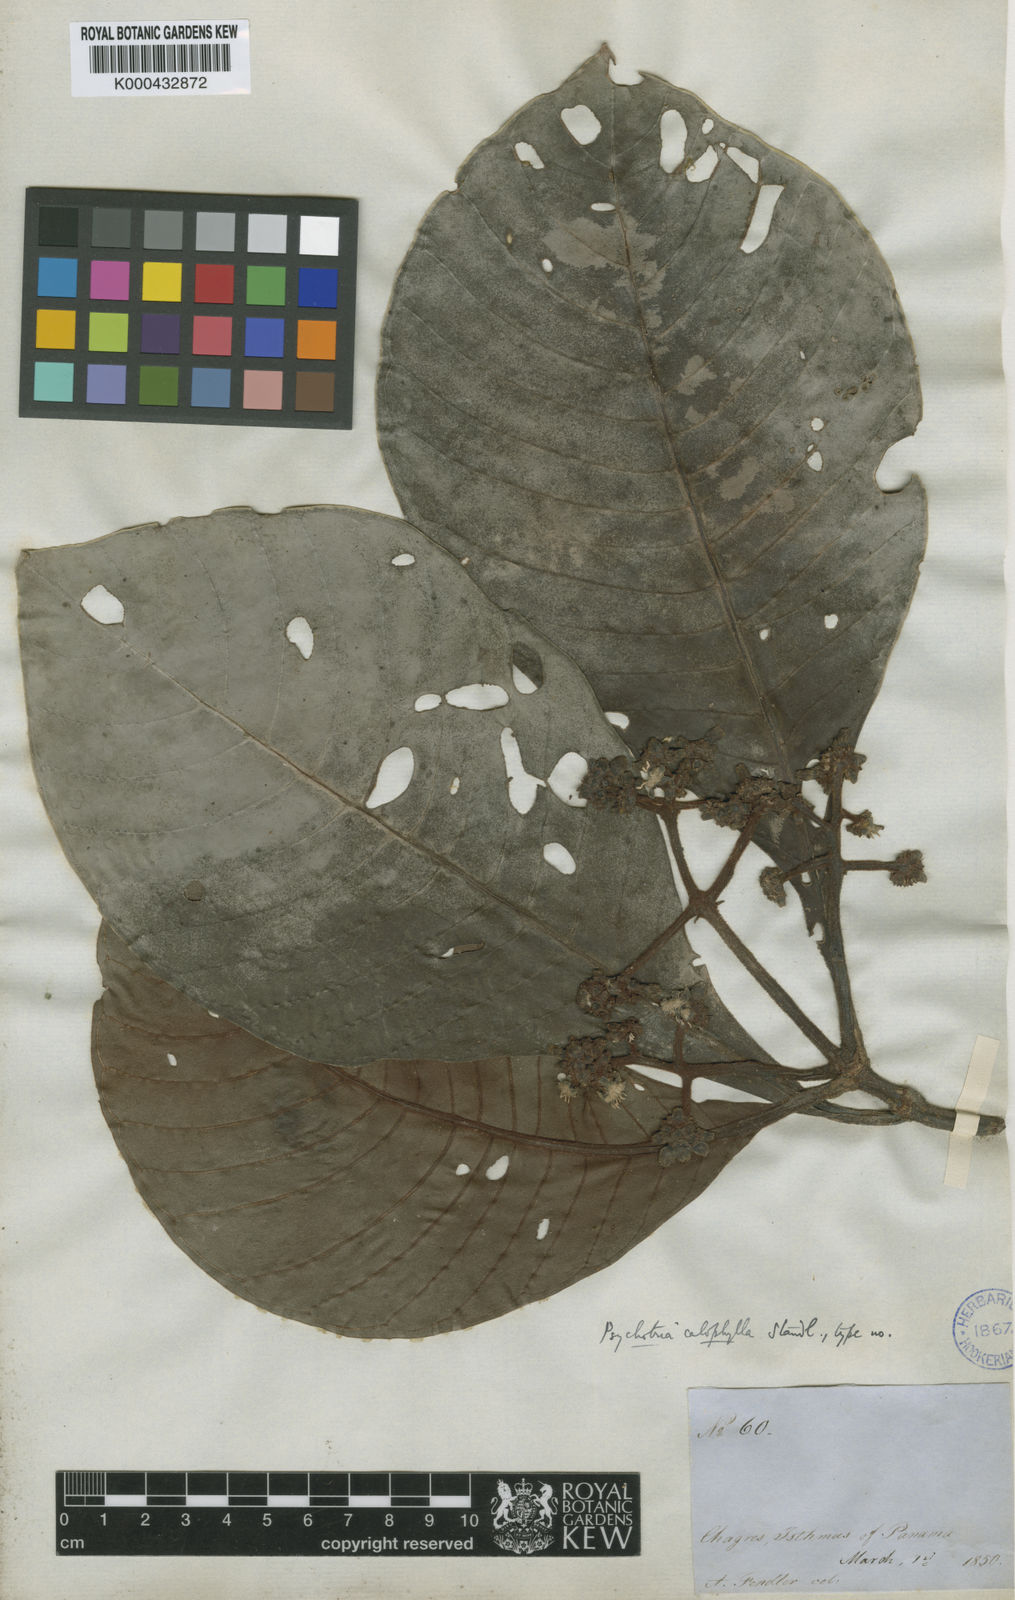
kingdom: Plantae
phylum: Tracheophyta
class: Magnoliopsida
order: Gentianales
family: Rubiaceae
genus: Psychotria
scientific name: Psychotria calophylla
